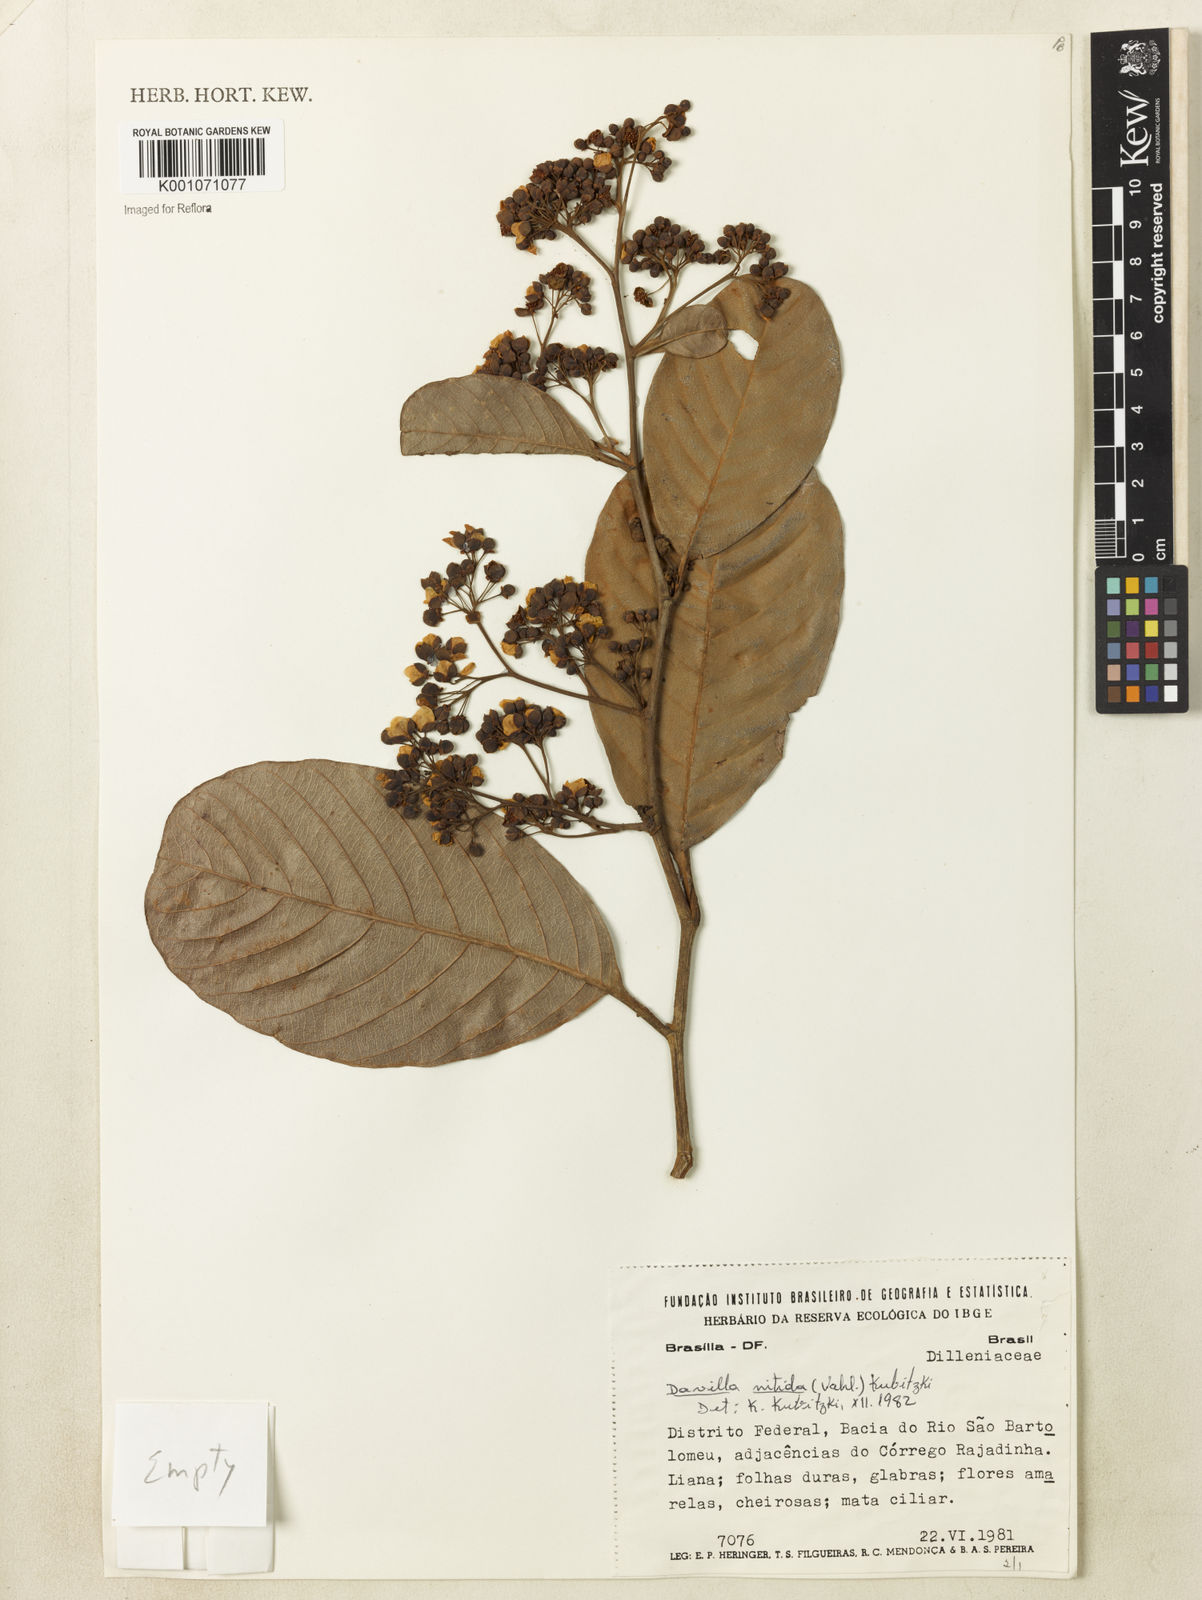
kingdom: Plantae
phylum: Tracheophyta
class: Magnoliopsida
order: Dilleniales
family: Dilleniaceae
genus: Davilla
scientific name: Davilla nitida
